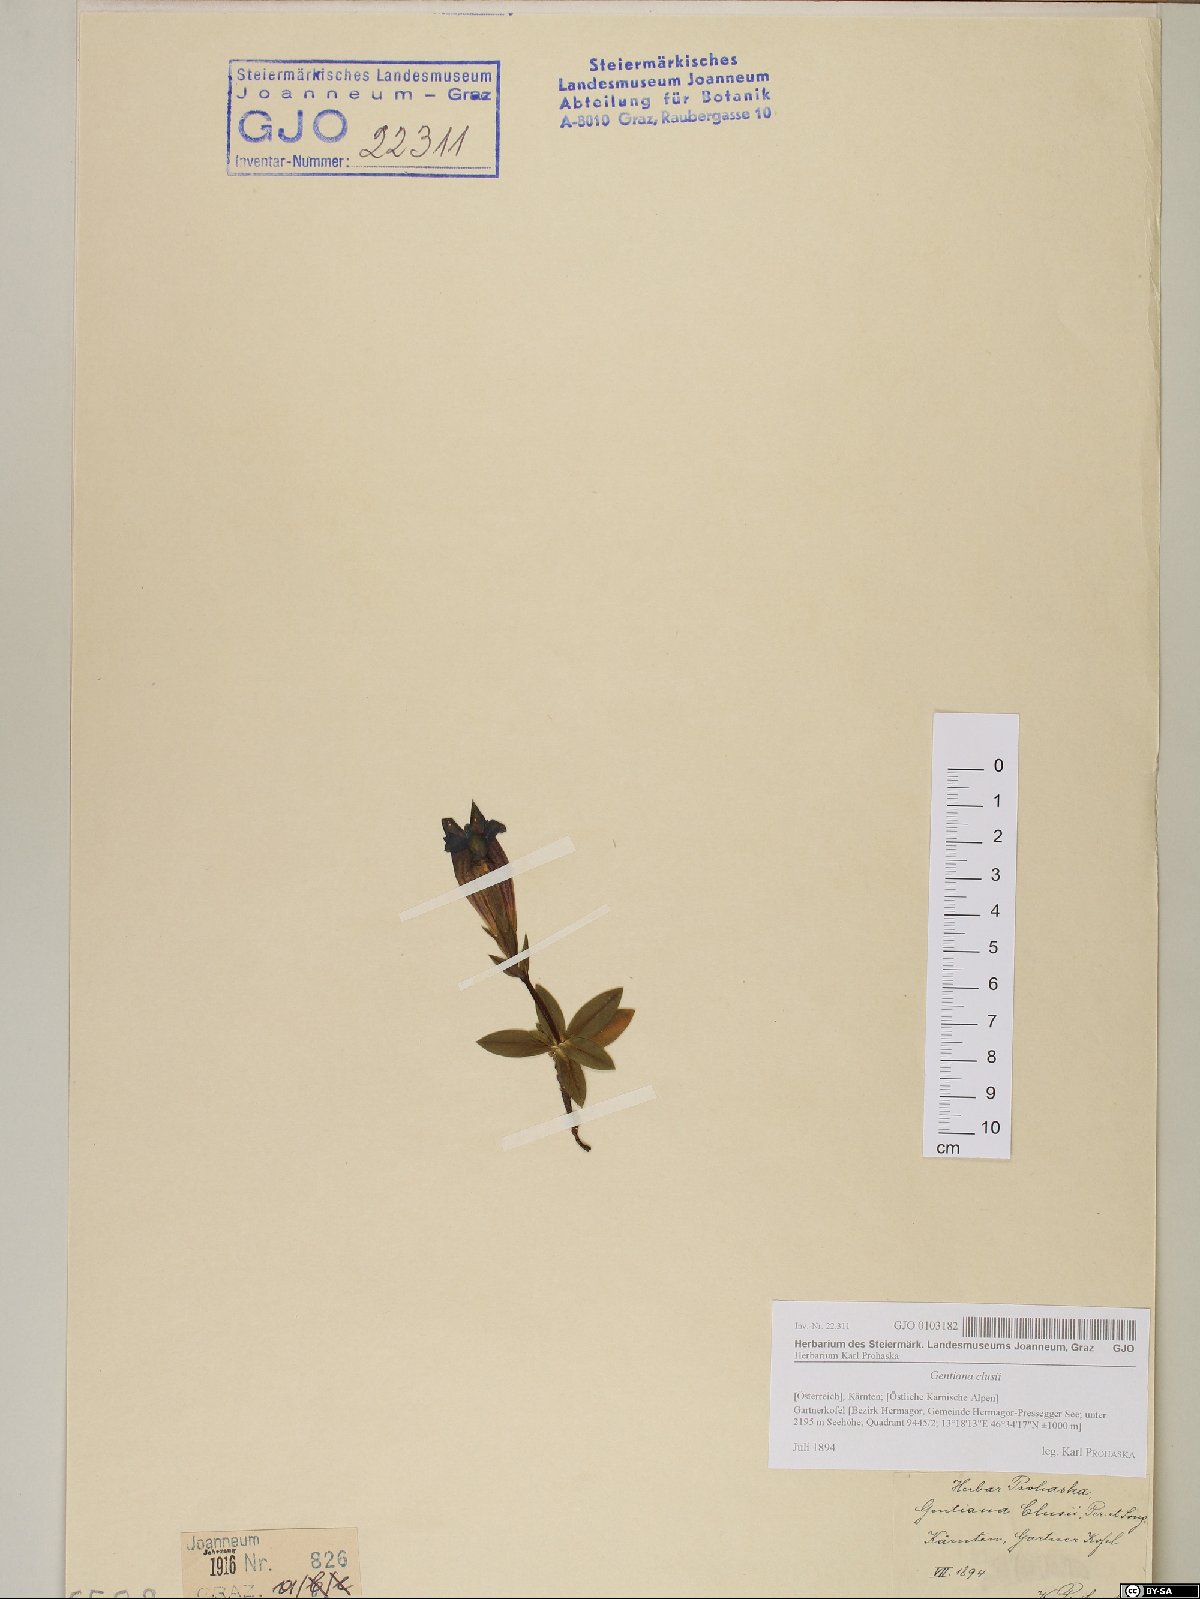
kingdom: Plantae
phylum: Tracheophyta
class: Magnoliopsida
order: Gentianales
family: Gentianaceae
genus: Gentiana
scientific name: Gentiana clusii
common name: Trumpet gentian
